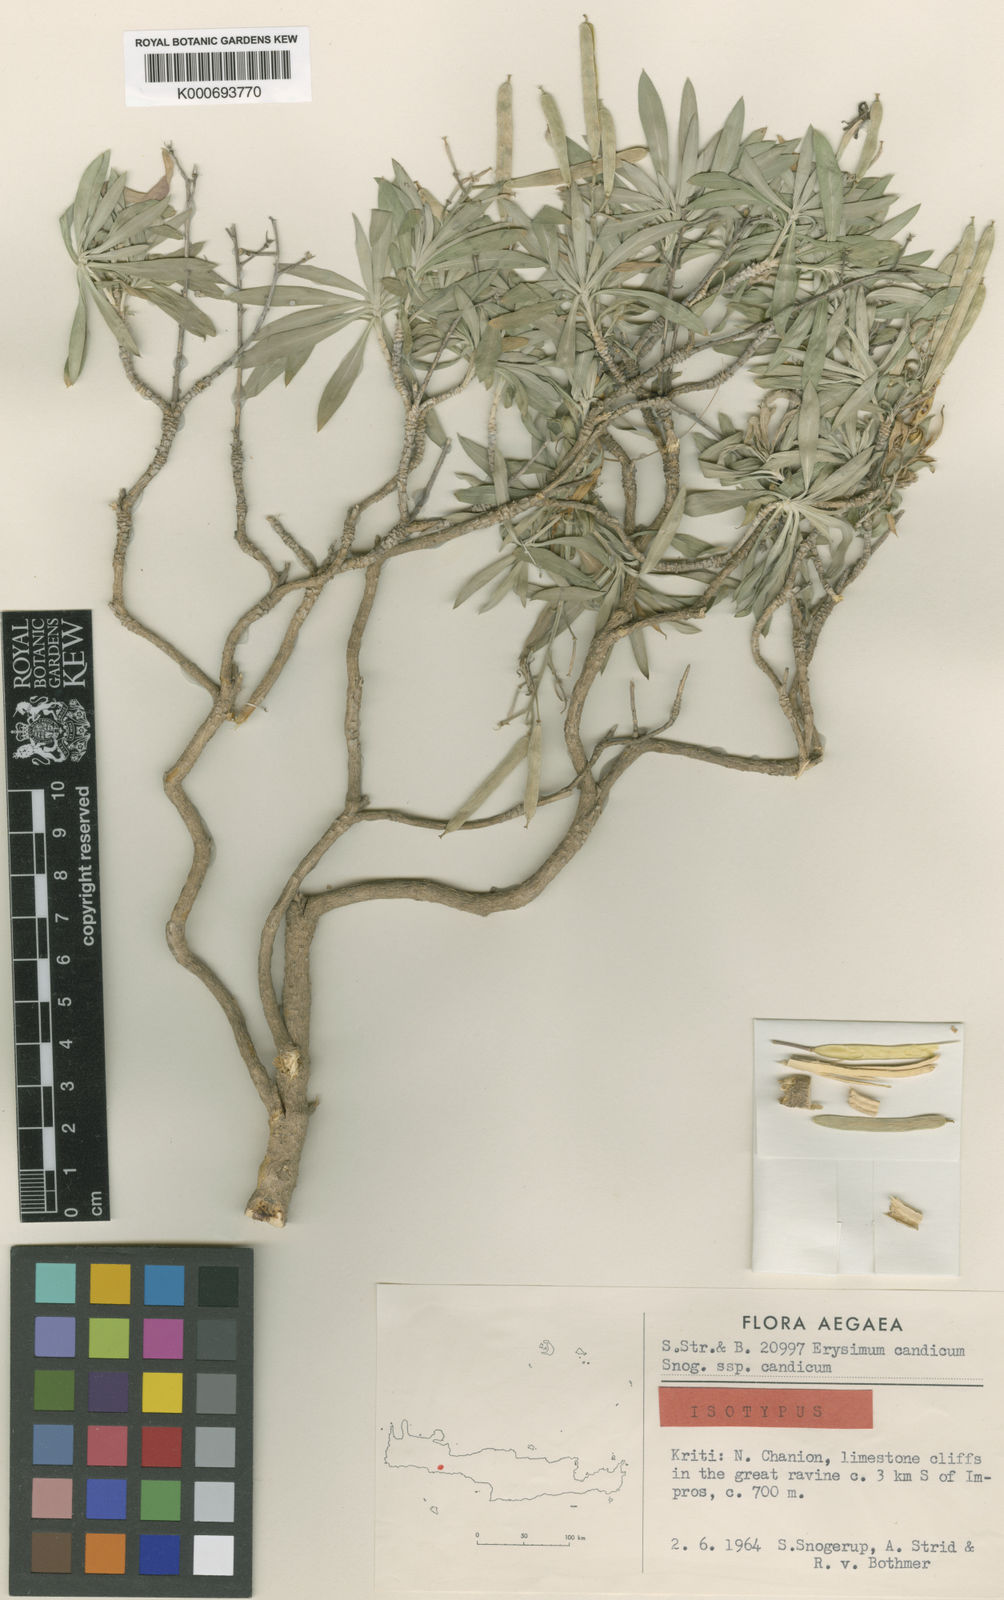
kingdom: Plantae
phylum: Tracheophyta
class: Magnoliopsida
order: Brassicales
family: Brassicaceae
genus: Erysimum
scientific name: Erysimum candicum
